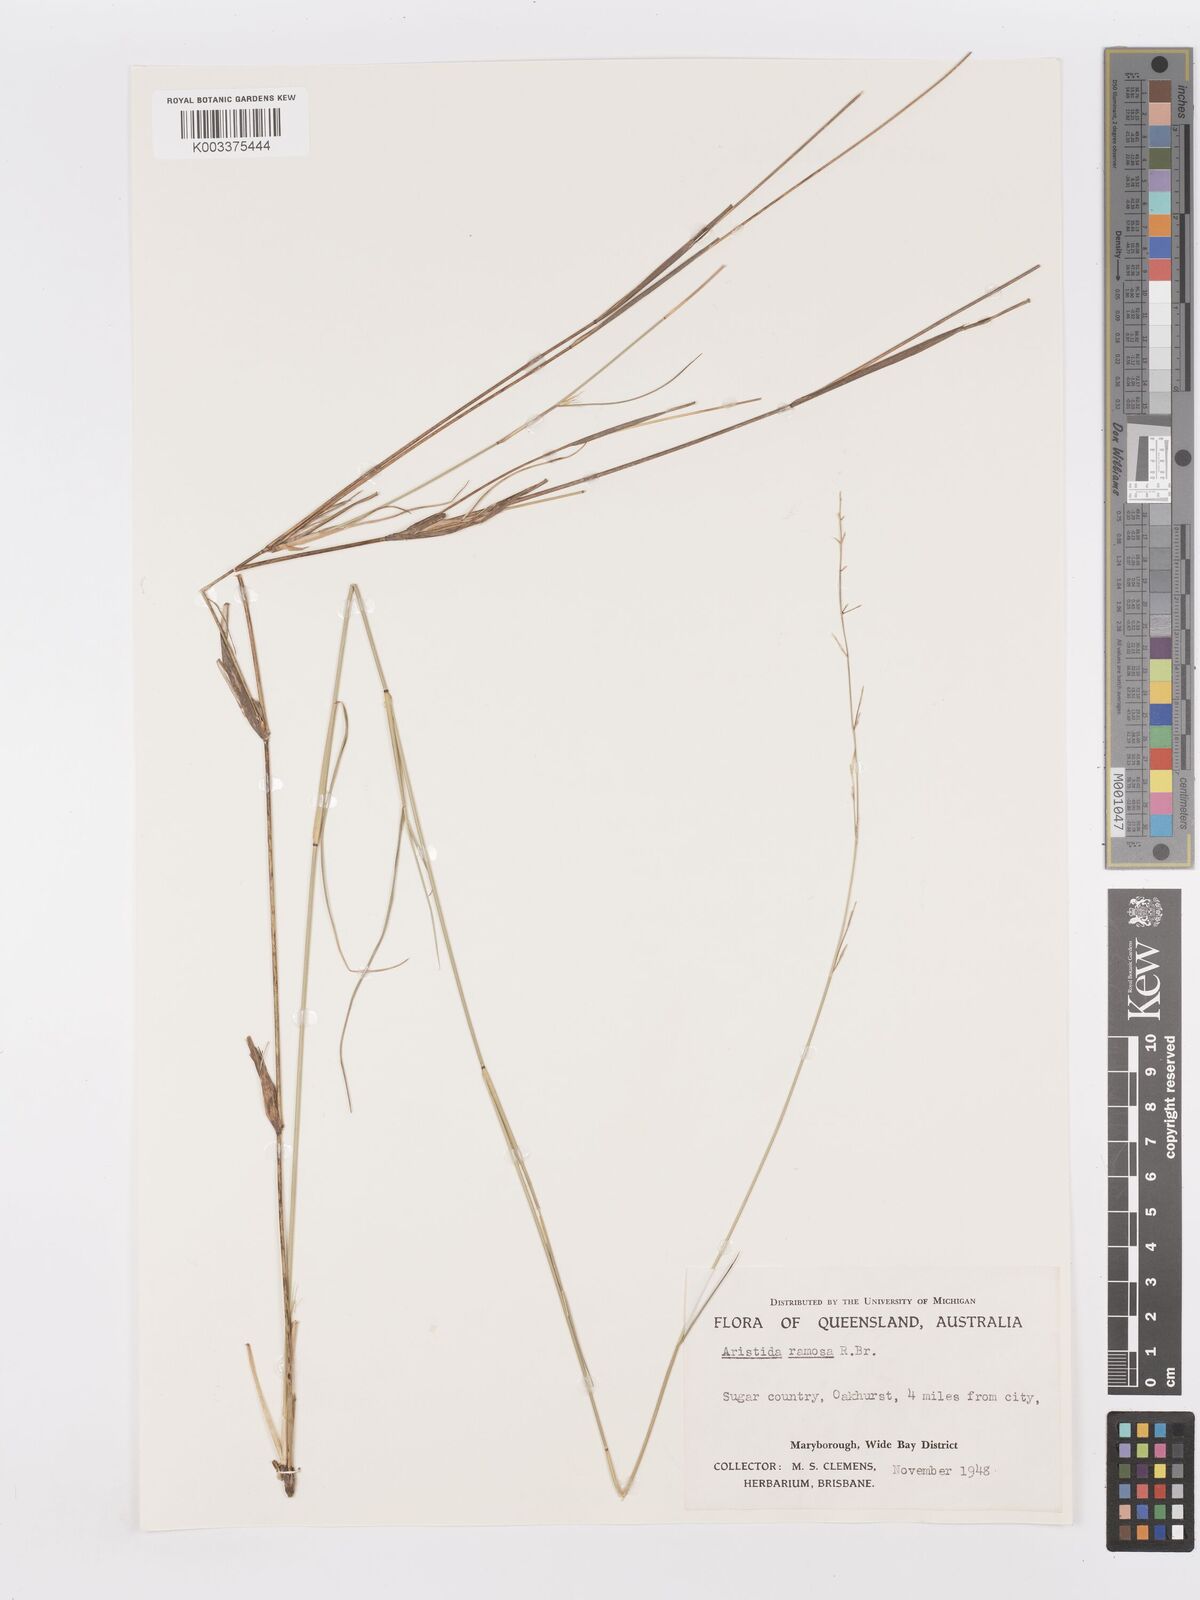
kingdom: Plantae
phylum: Tracheophyta
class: Liliopsida
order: Poales
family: Poaceae
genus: Aristida
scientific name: Aristida ramosa
